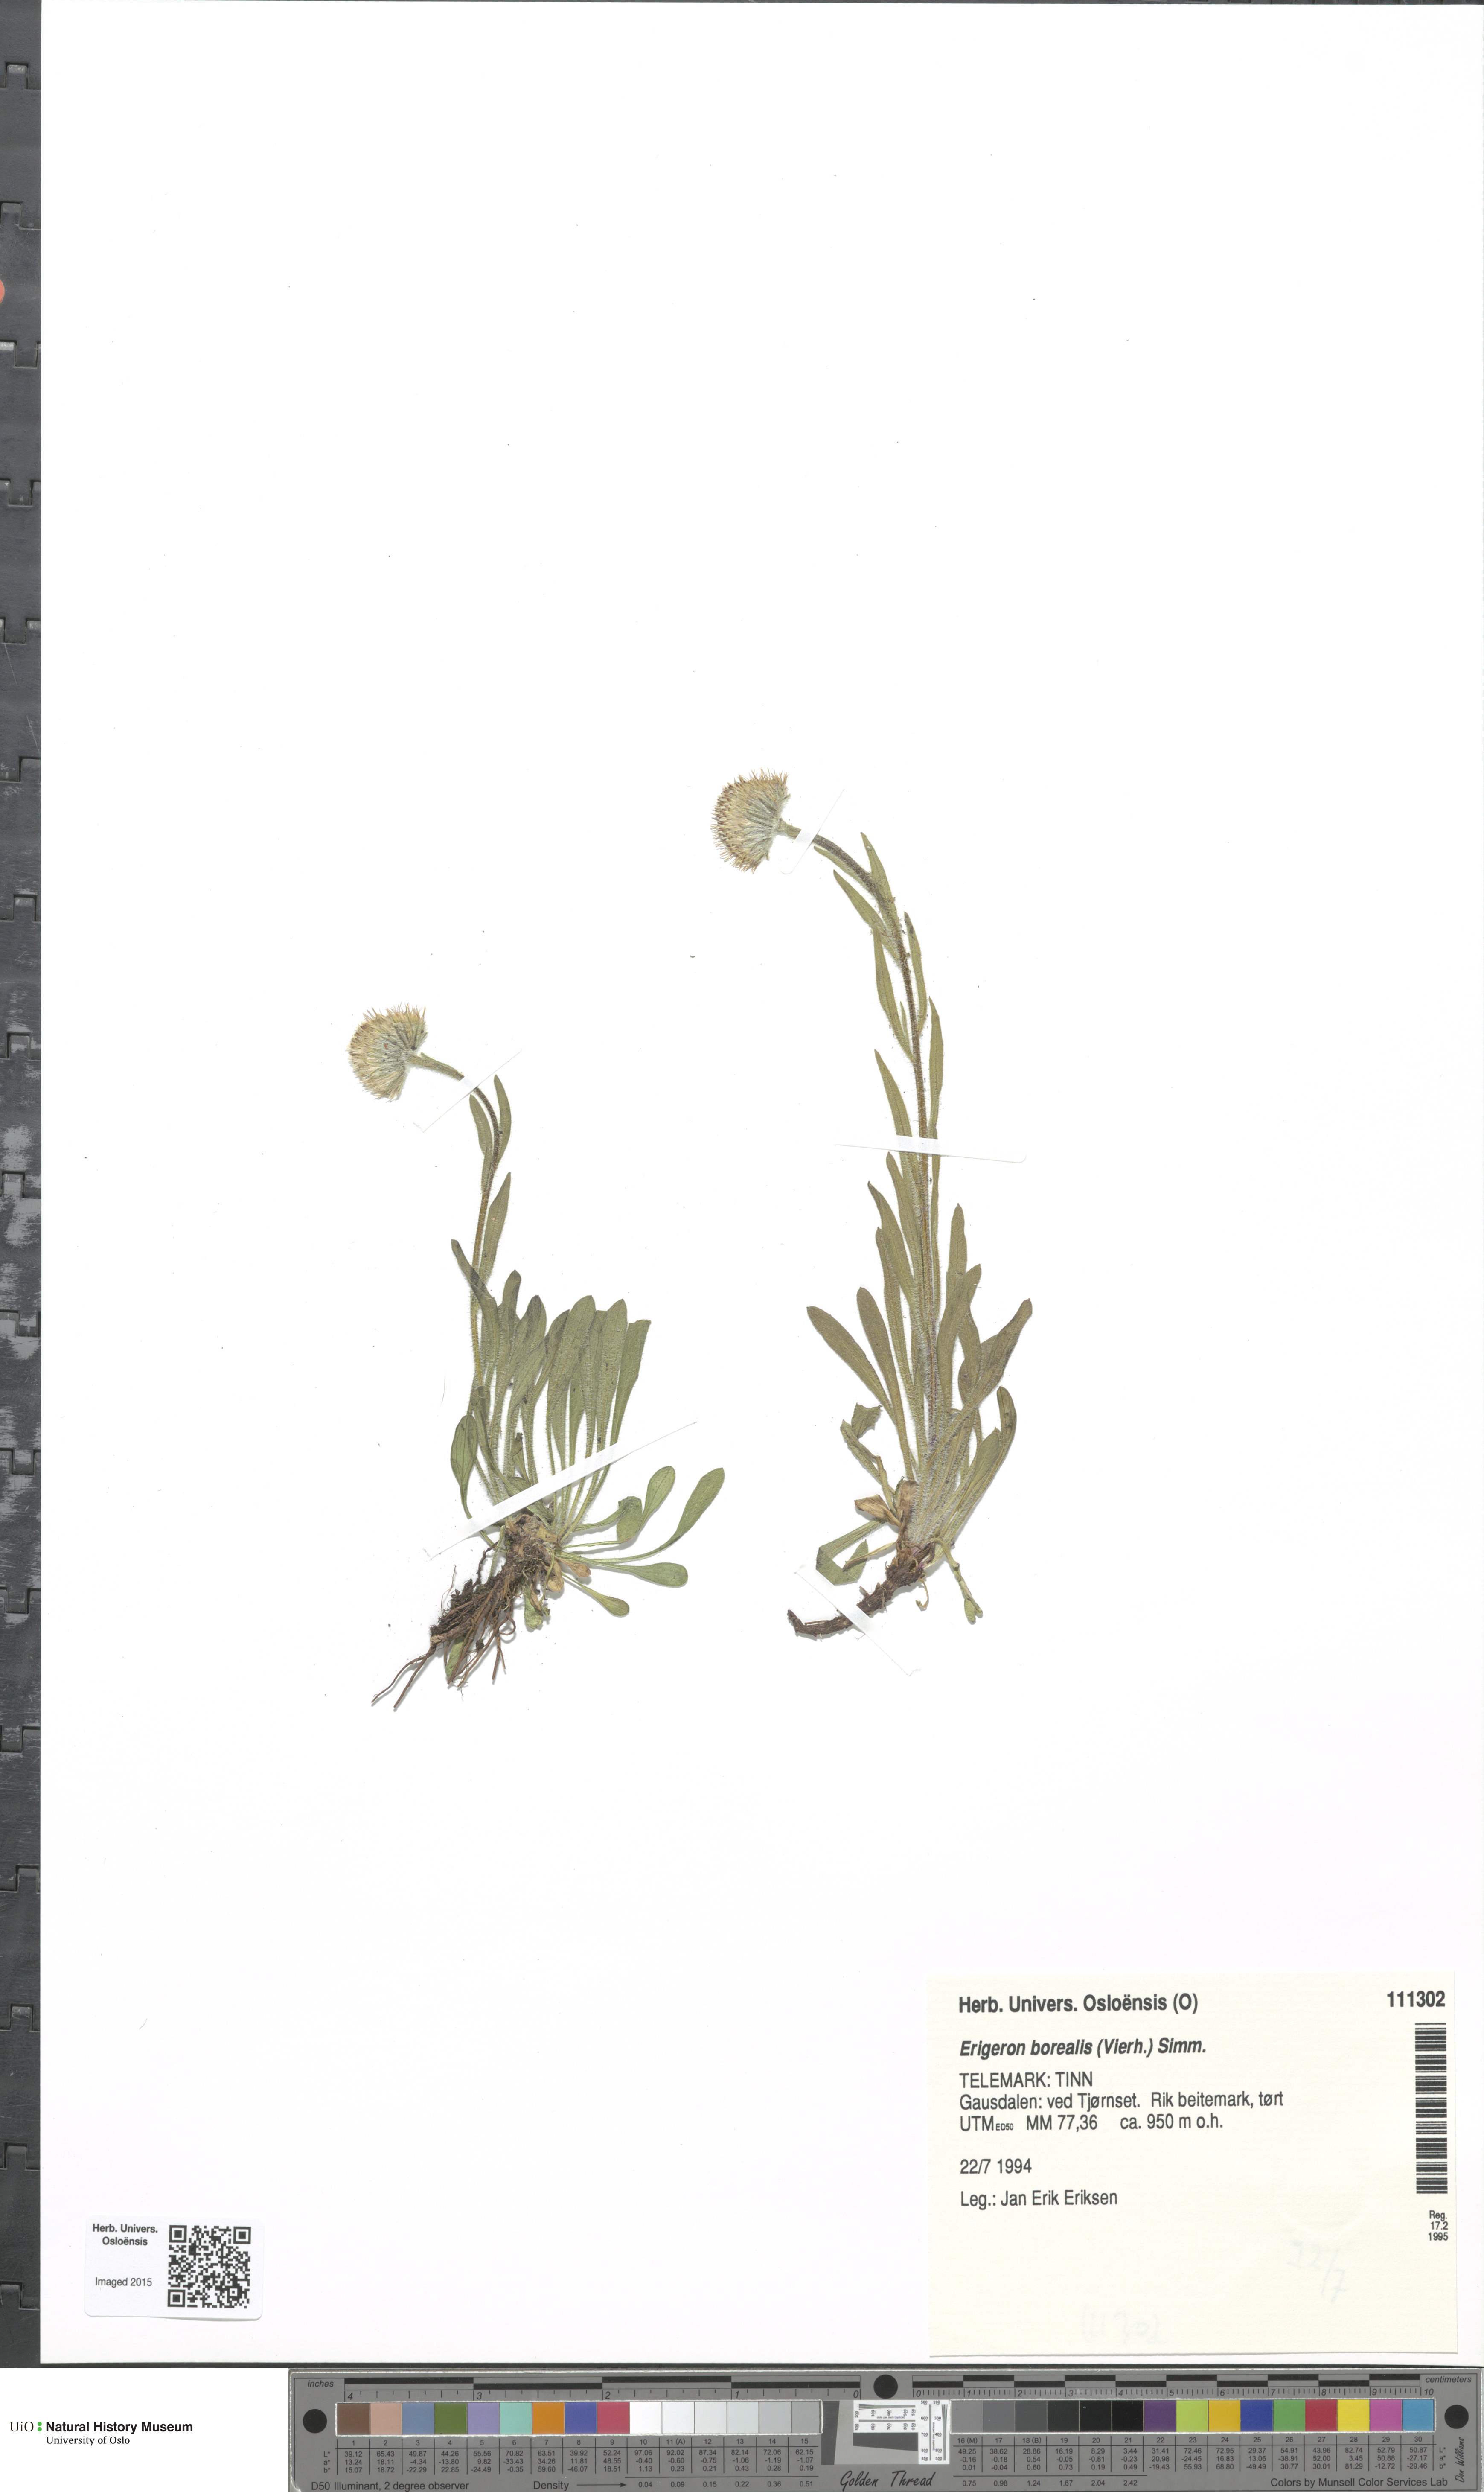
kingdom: Plantae
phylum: Tracheophyta
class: Magnoliopsida
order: Asterales
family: Asteraceae
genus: Erigeron
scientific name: Erigeron borealis
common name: Alpine fleabane
